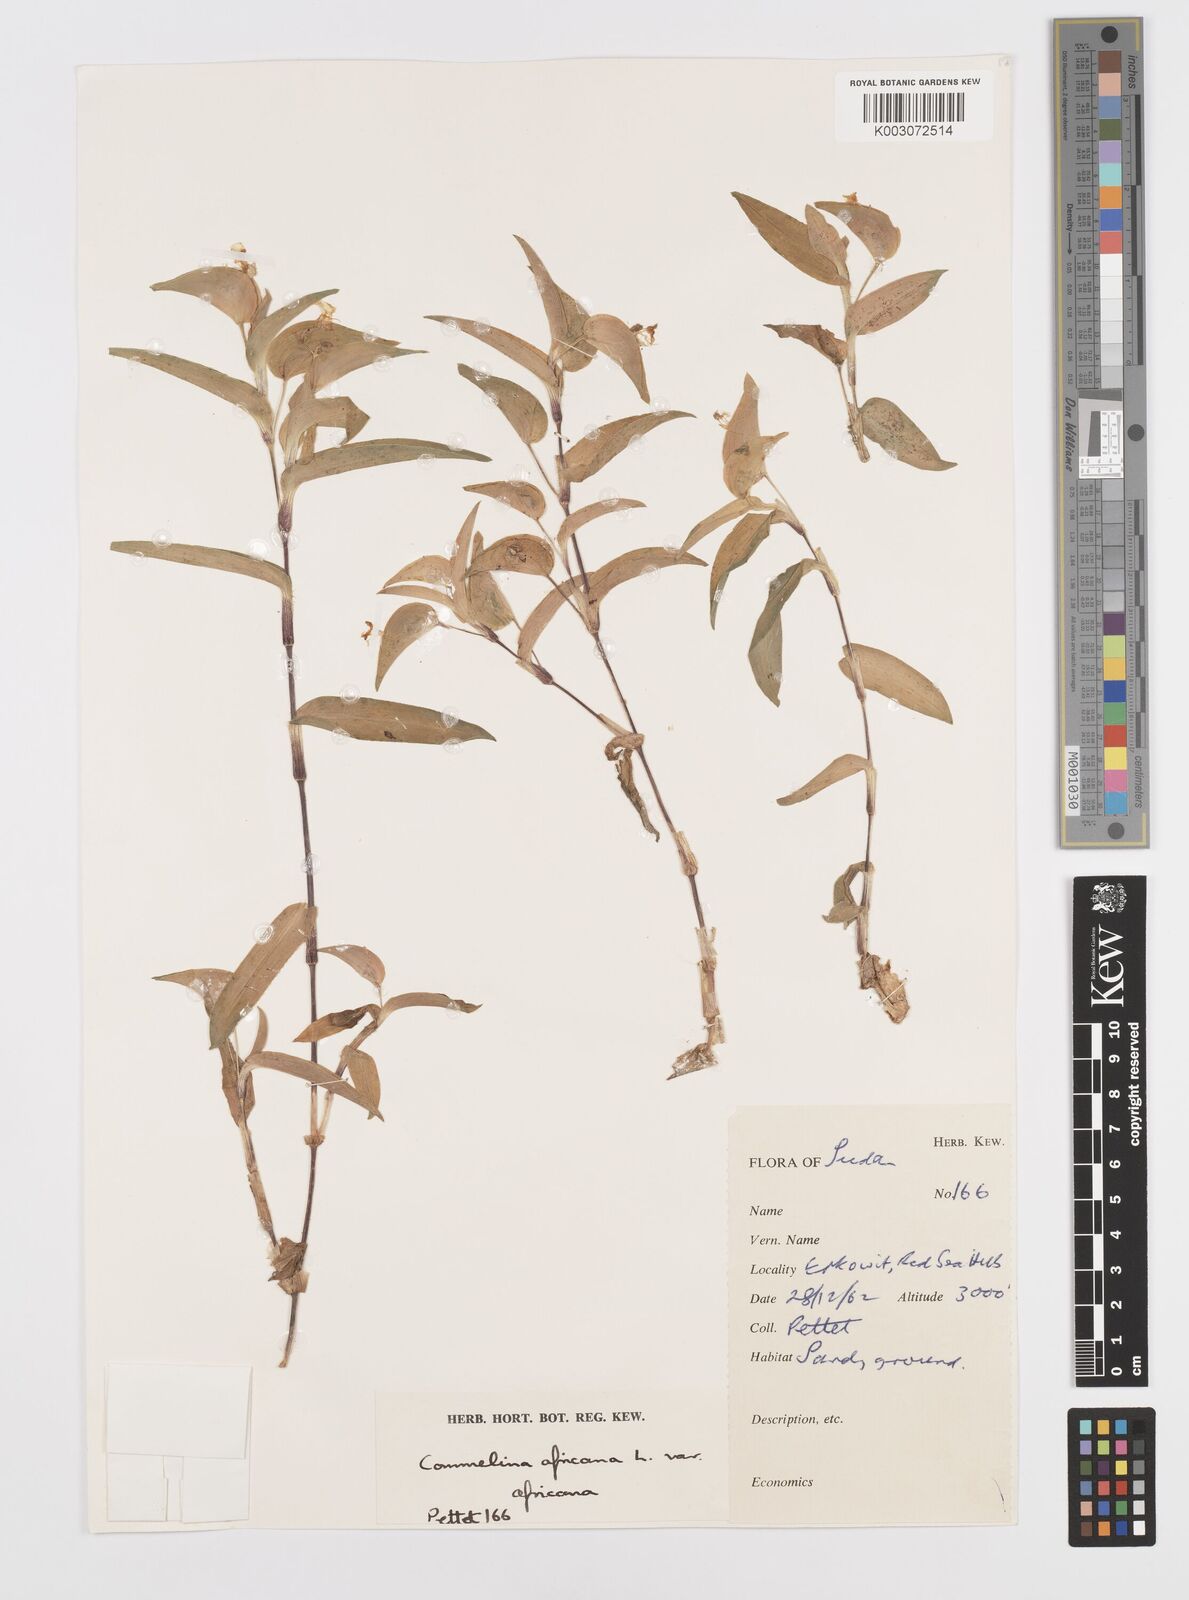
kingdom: Plantae
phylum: Tracheophyta
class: Liliopsida
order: Commelinales
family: Commelinaceae
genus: Commelina
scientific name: Commelina africana
